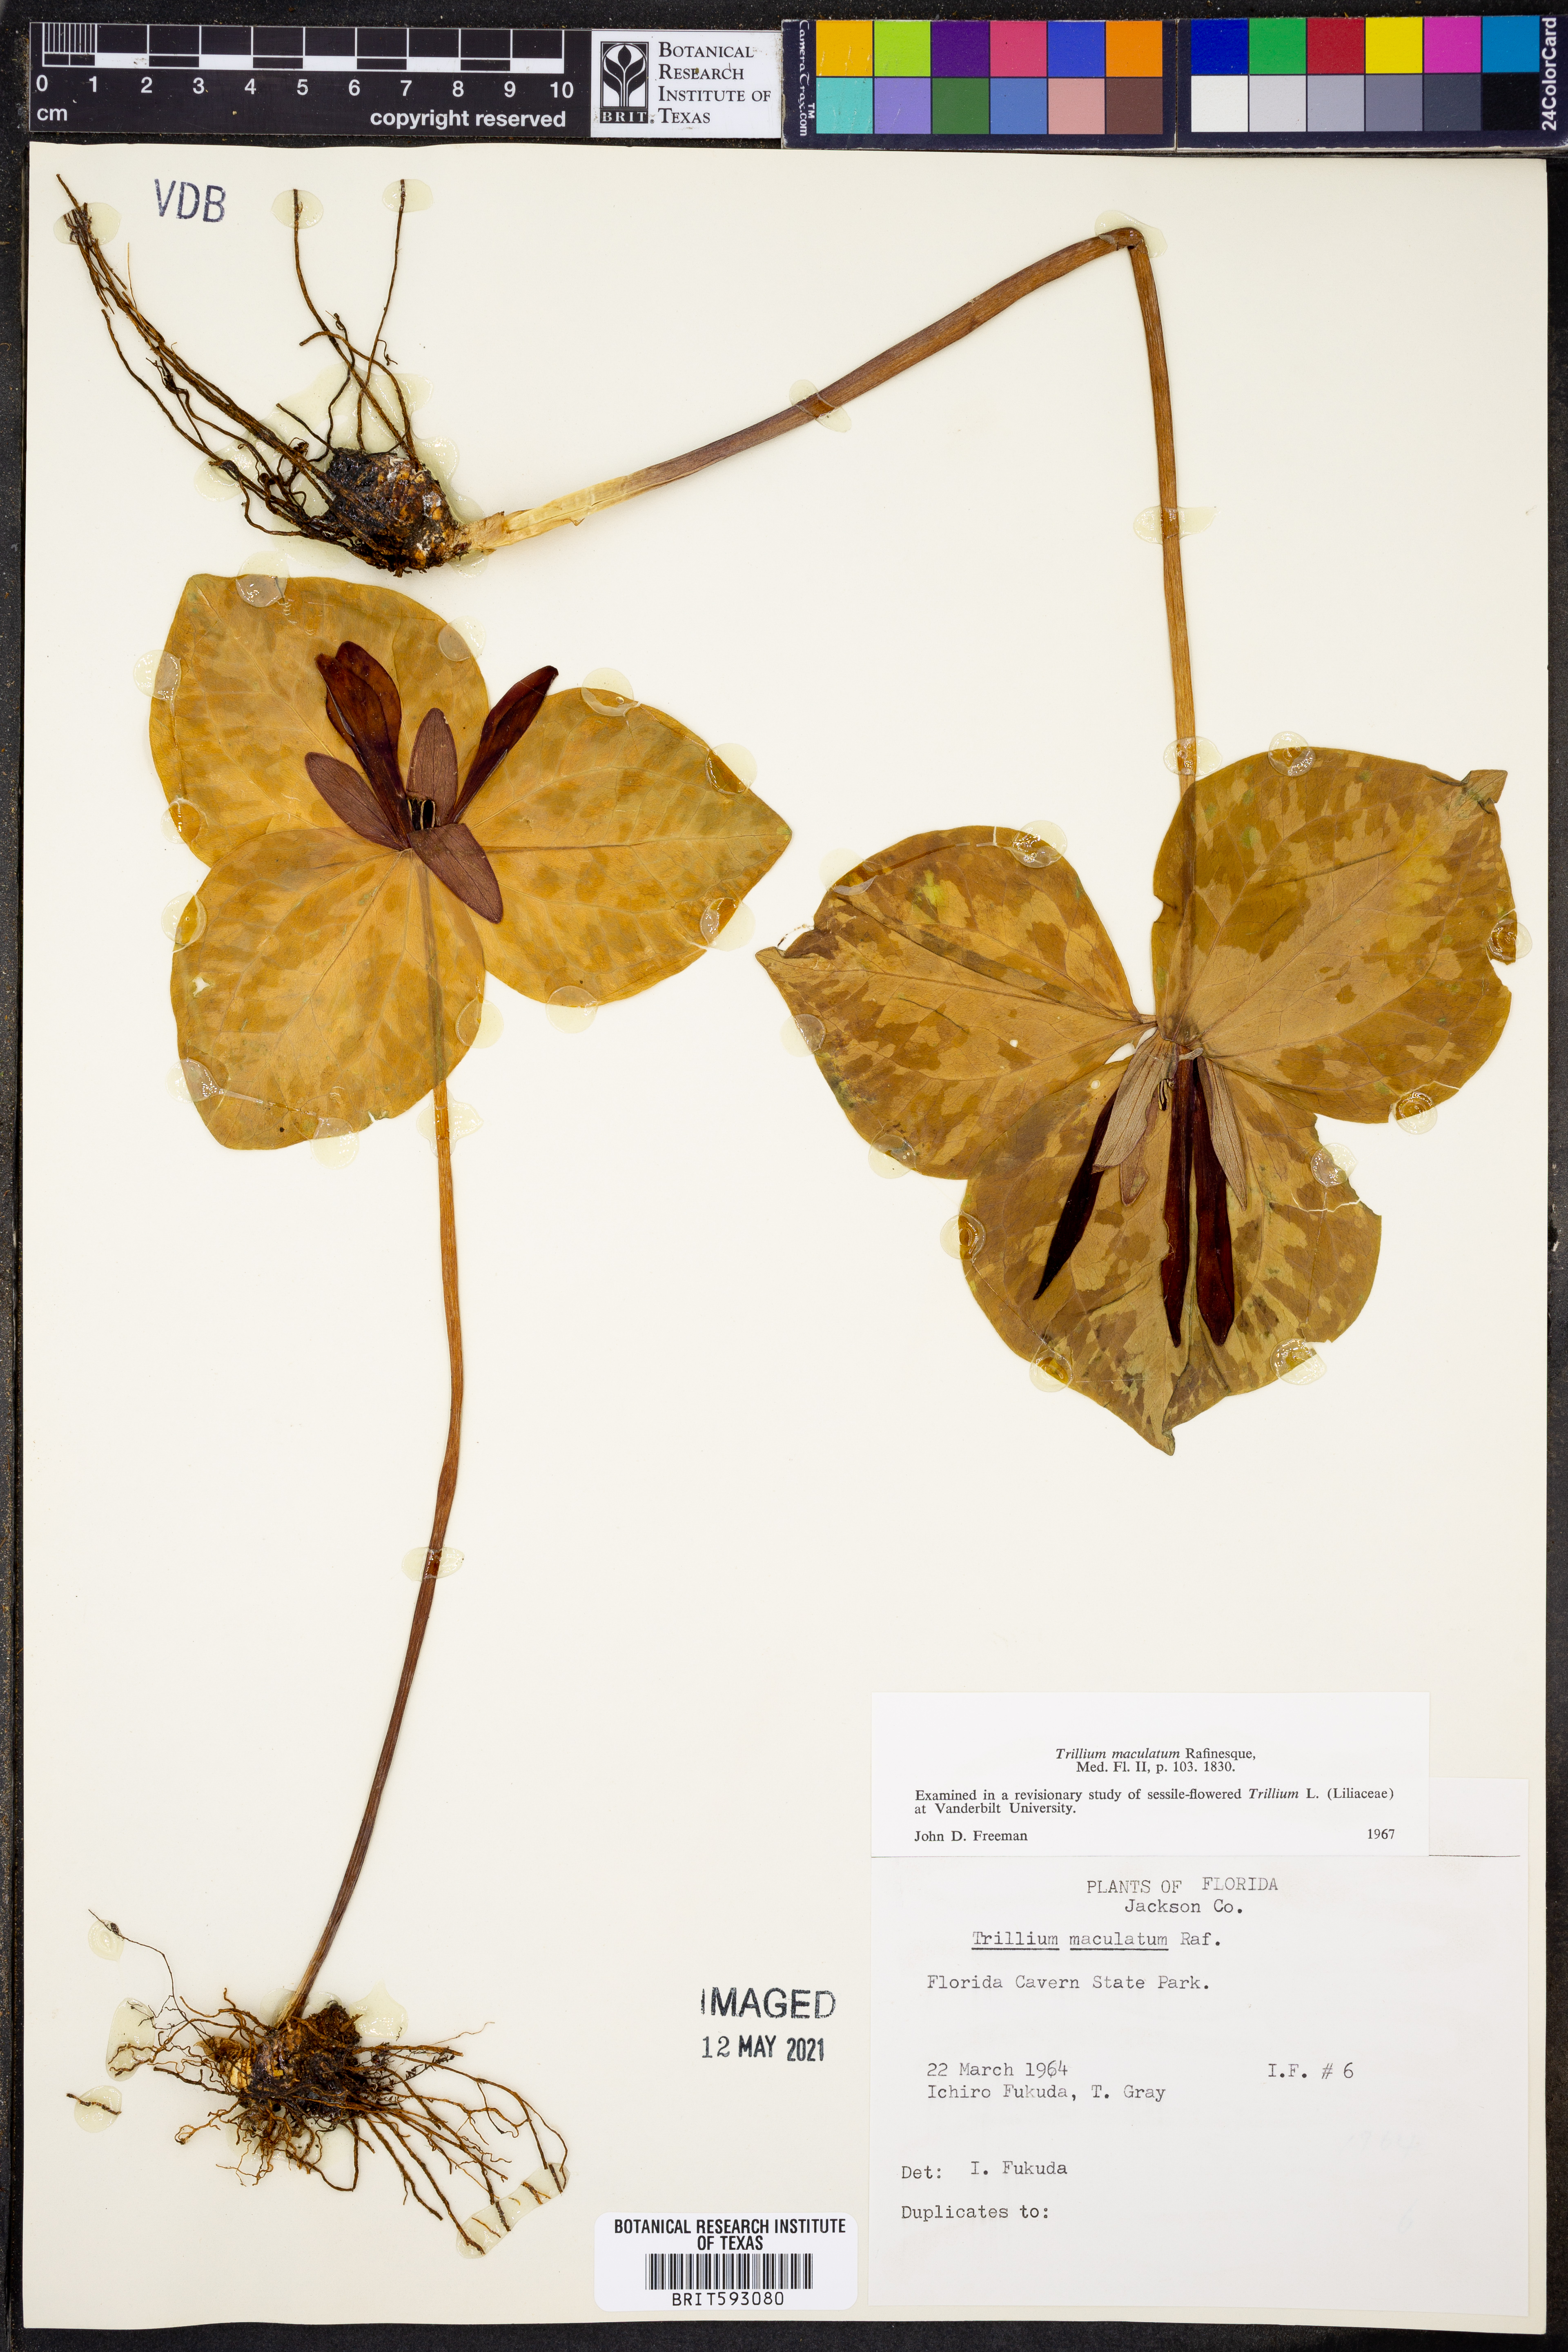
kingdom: Plantae
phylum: Tracheophyta
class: Liliopsida
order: Liliales
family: Melanthiaceae
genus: Trillium
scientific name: Trillium maculatum
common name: Mottled trillium
